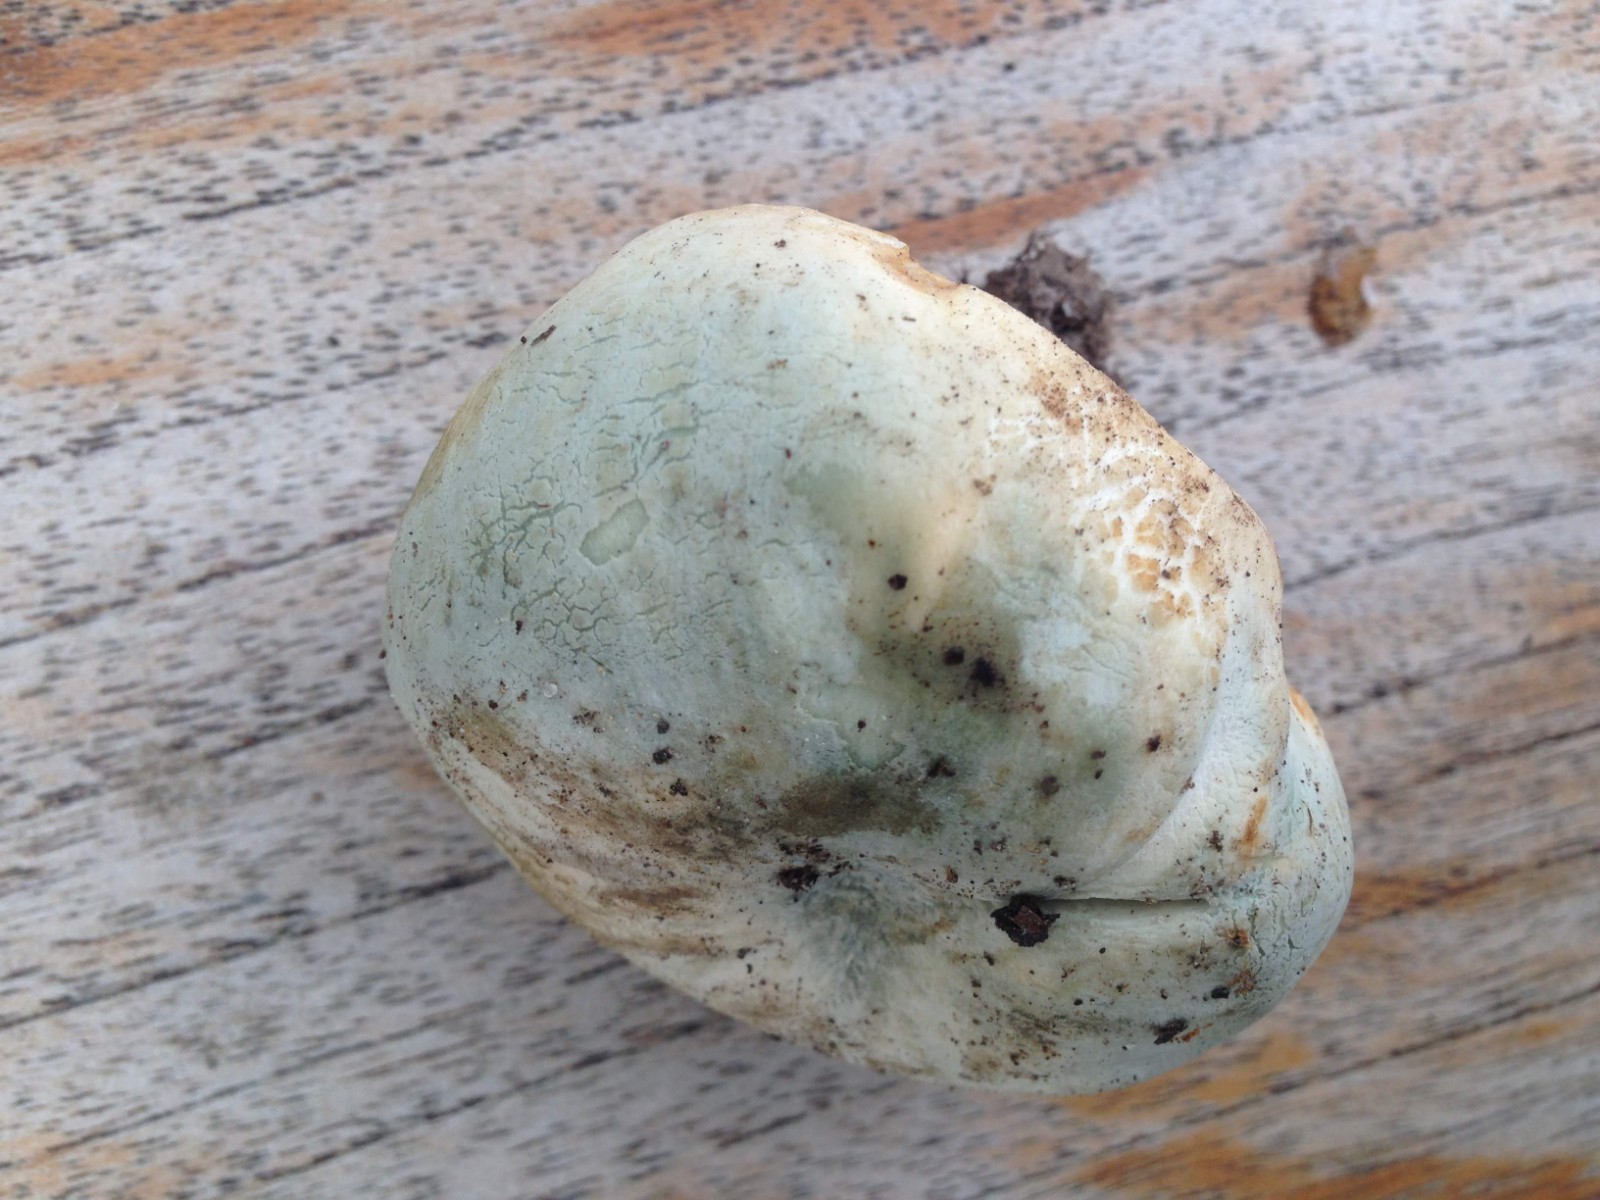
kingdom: Fungi
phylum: Basidiomycota
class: Agaricomycetes
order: Russulales
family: Russulaceae
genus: Russula
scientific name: Russula virescens
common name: spanskgrøn skørhat
